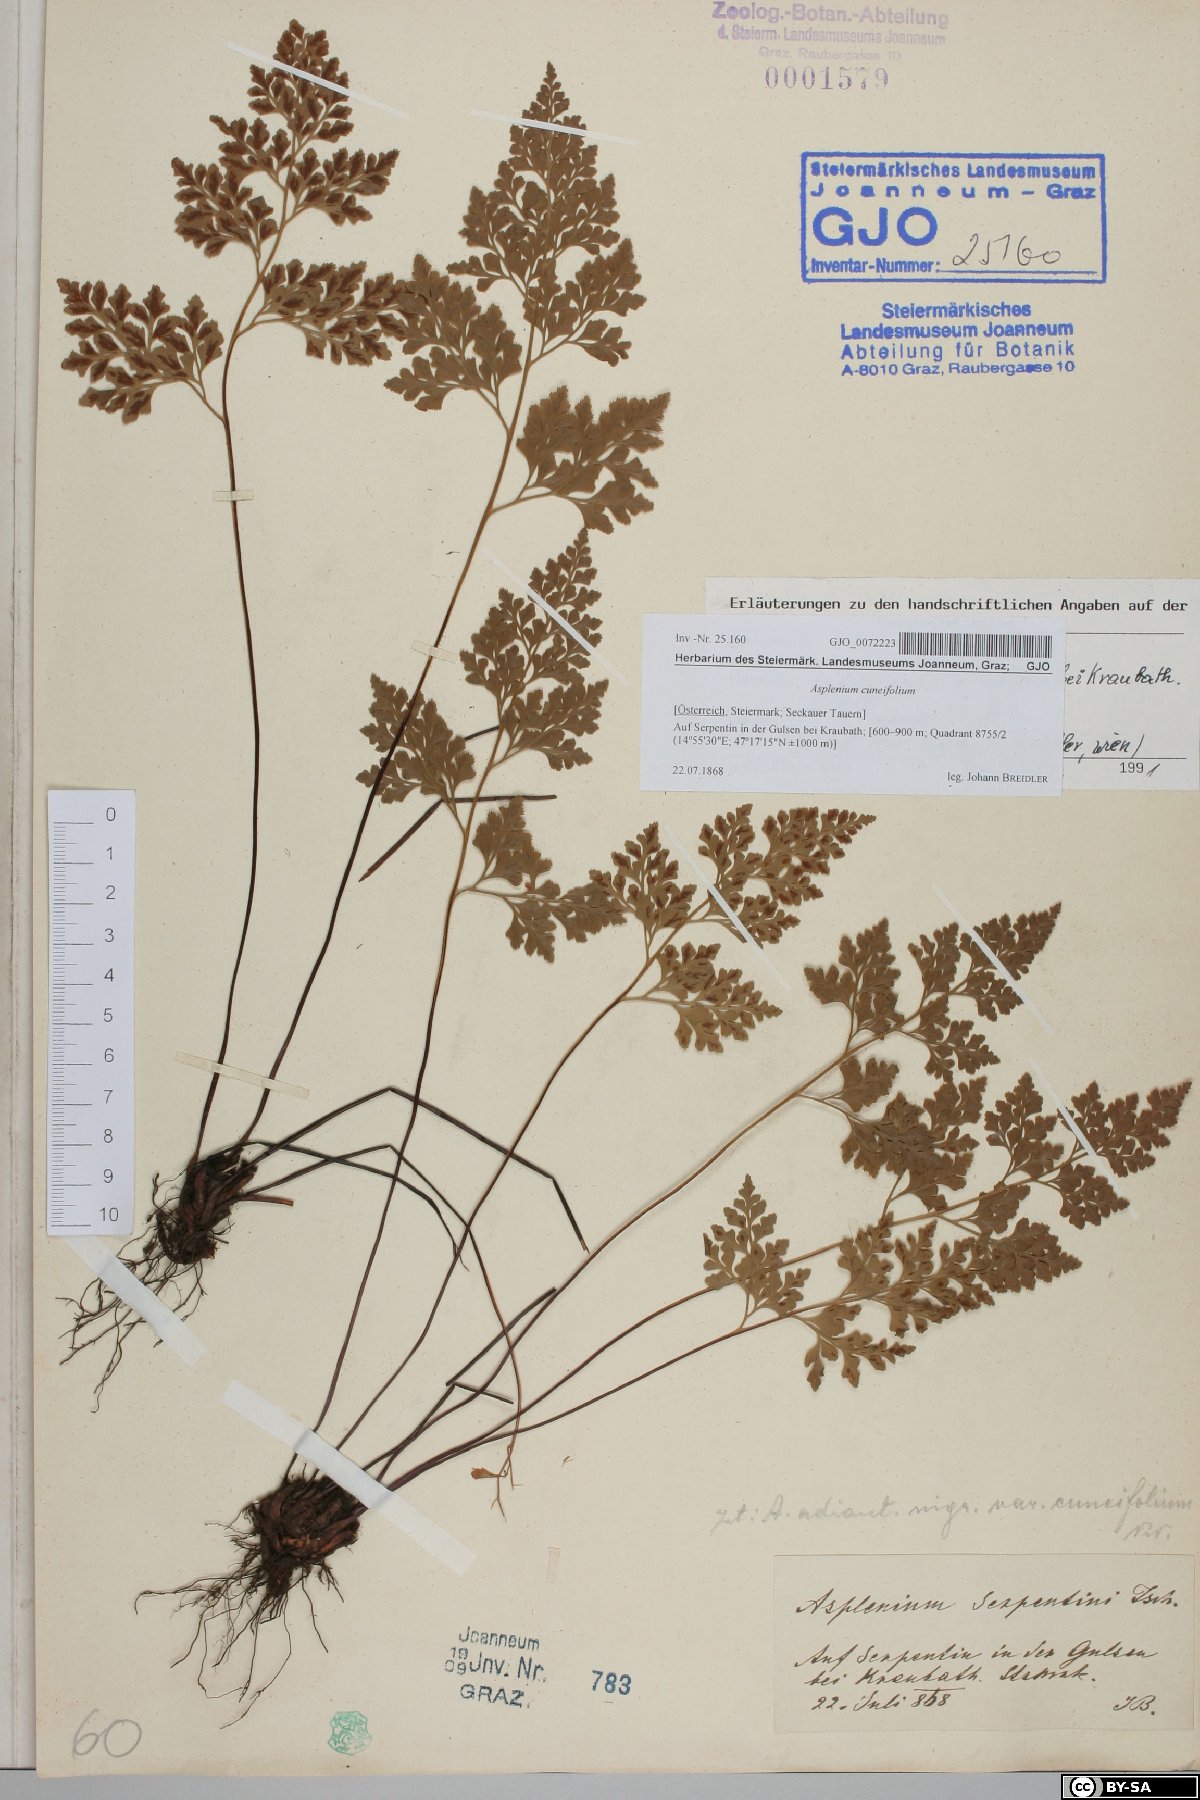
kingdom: Plantae
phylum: Tracheophyta
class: Polypodiopsida
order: Polypodiales
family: Aspleniaceae
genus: Asplenium
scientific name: Asplenium cuneifolium
